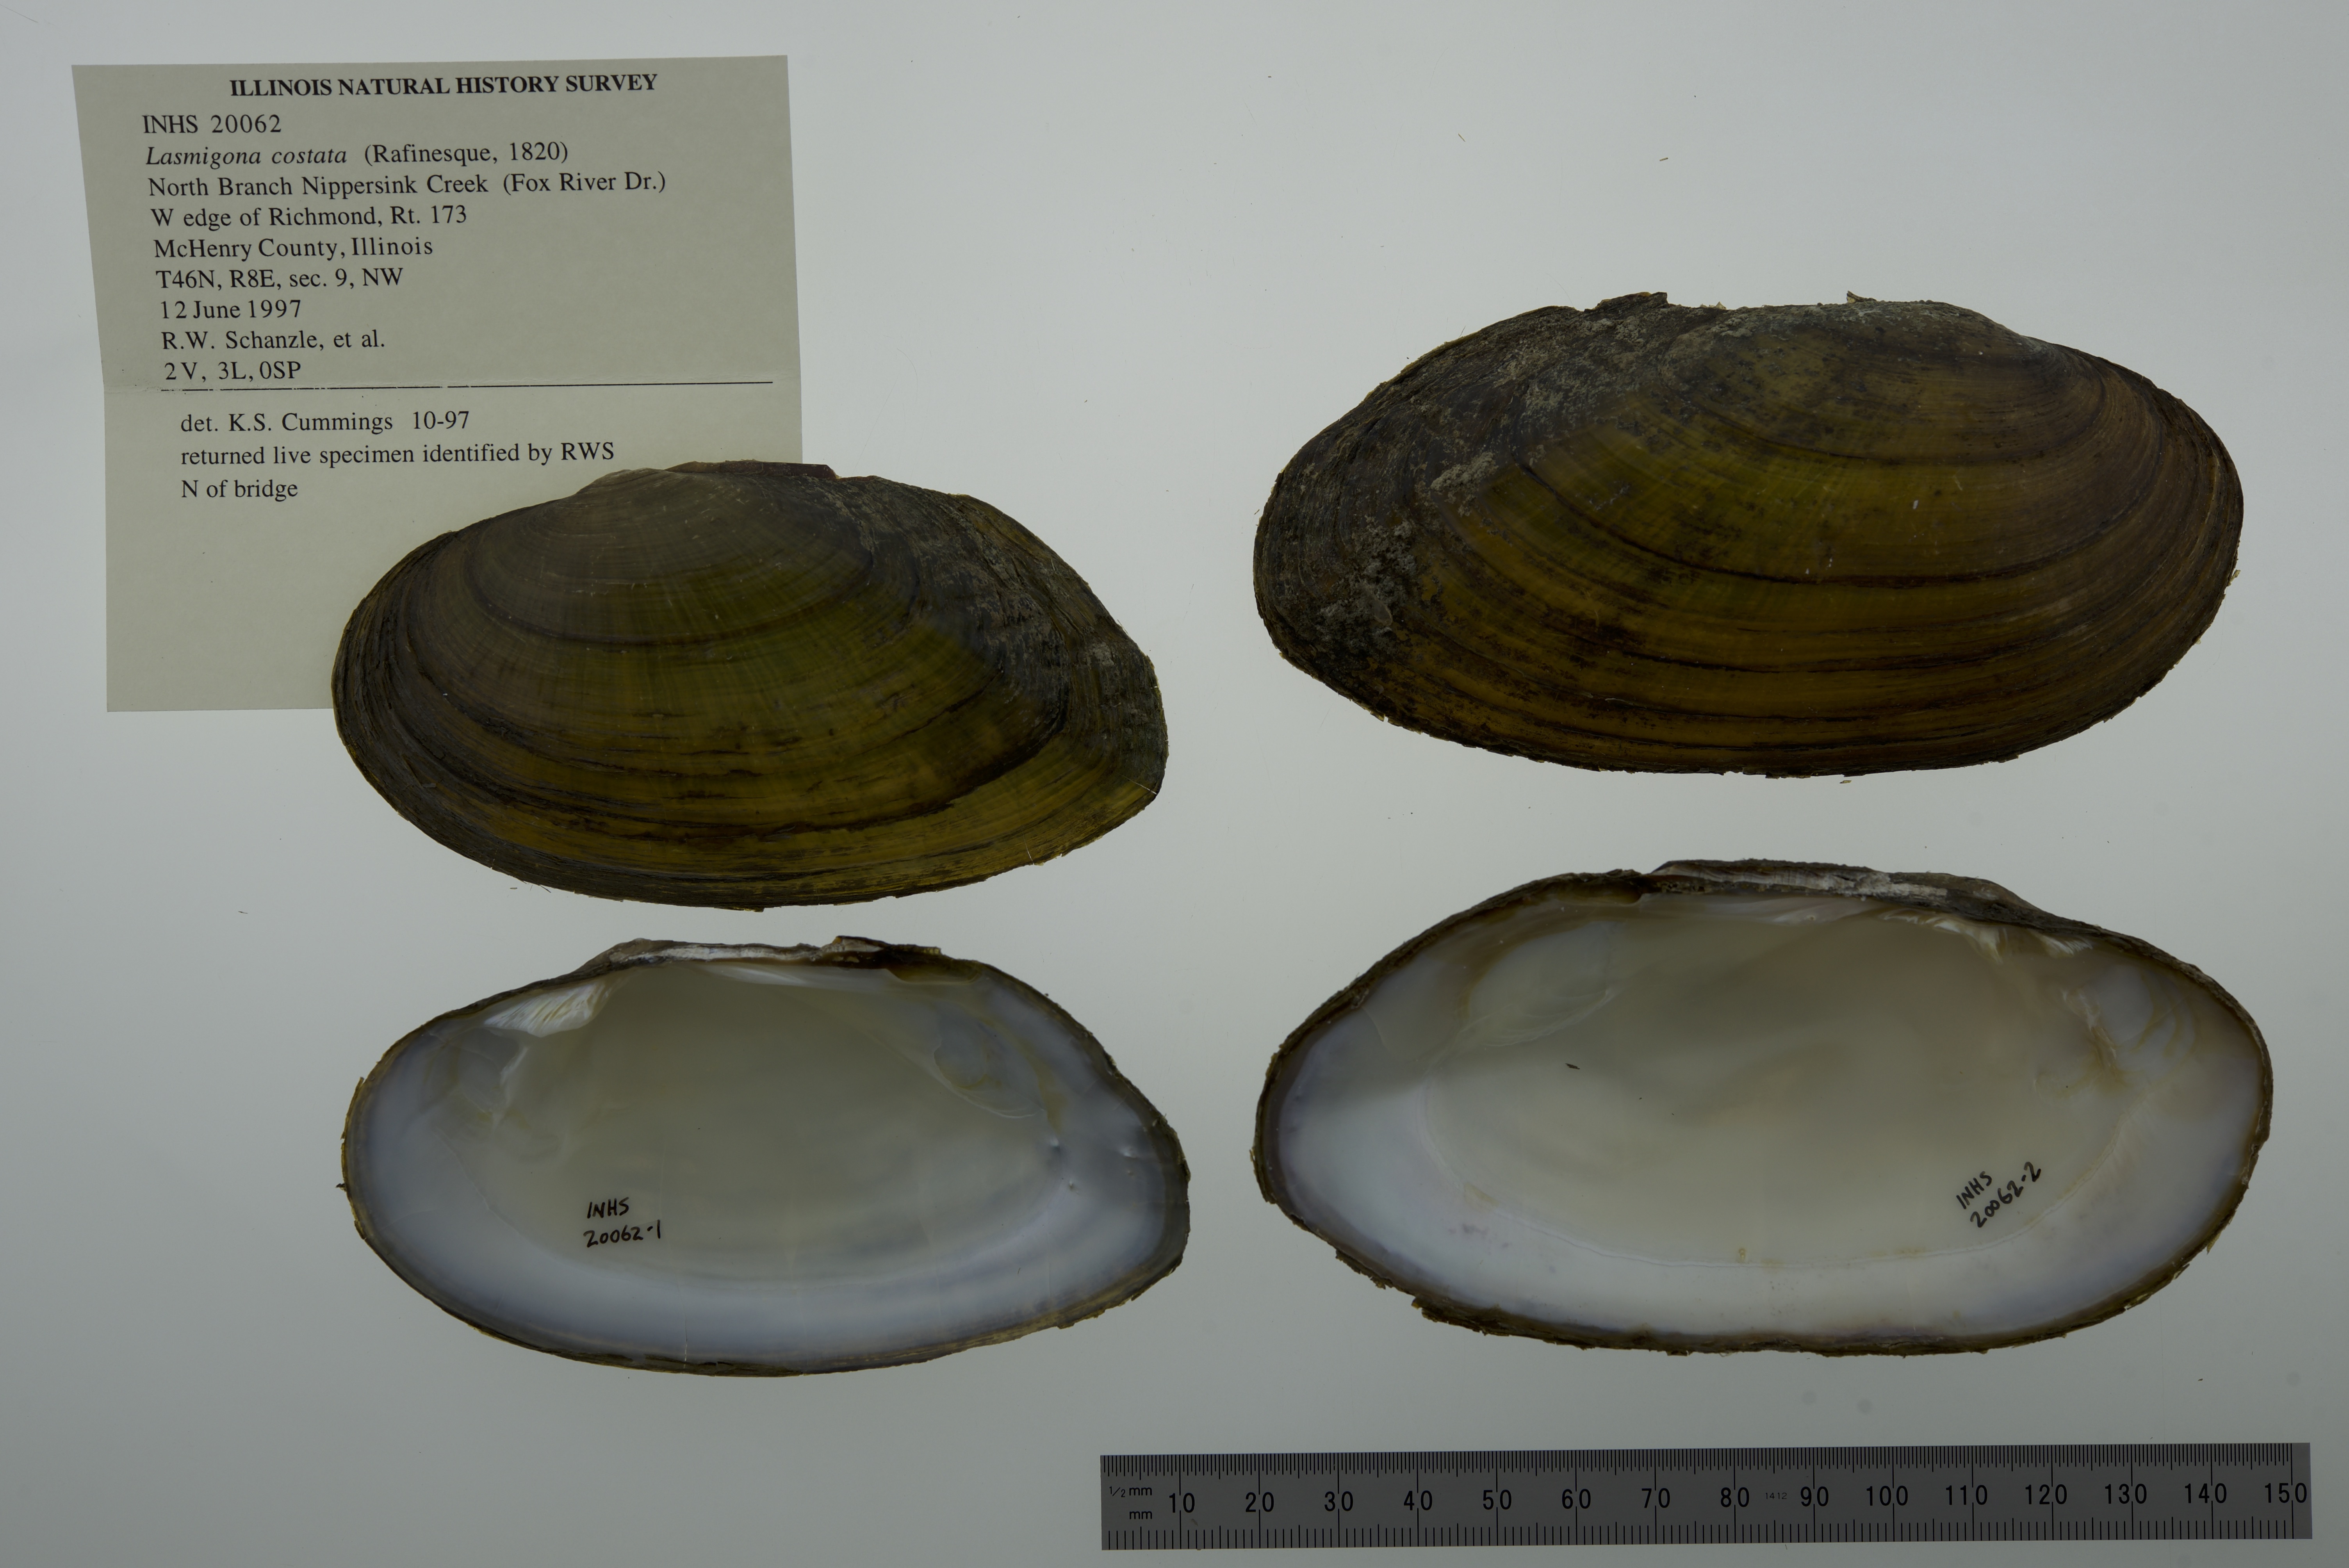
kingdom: Animalia
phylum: Mollusca
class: Bivalvia
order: Unionida
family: Unionidae
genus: Lasmigona
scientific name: Lasmigona costata
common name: Flutedshell
